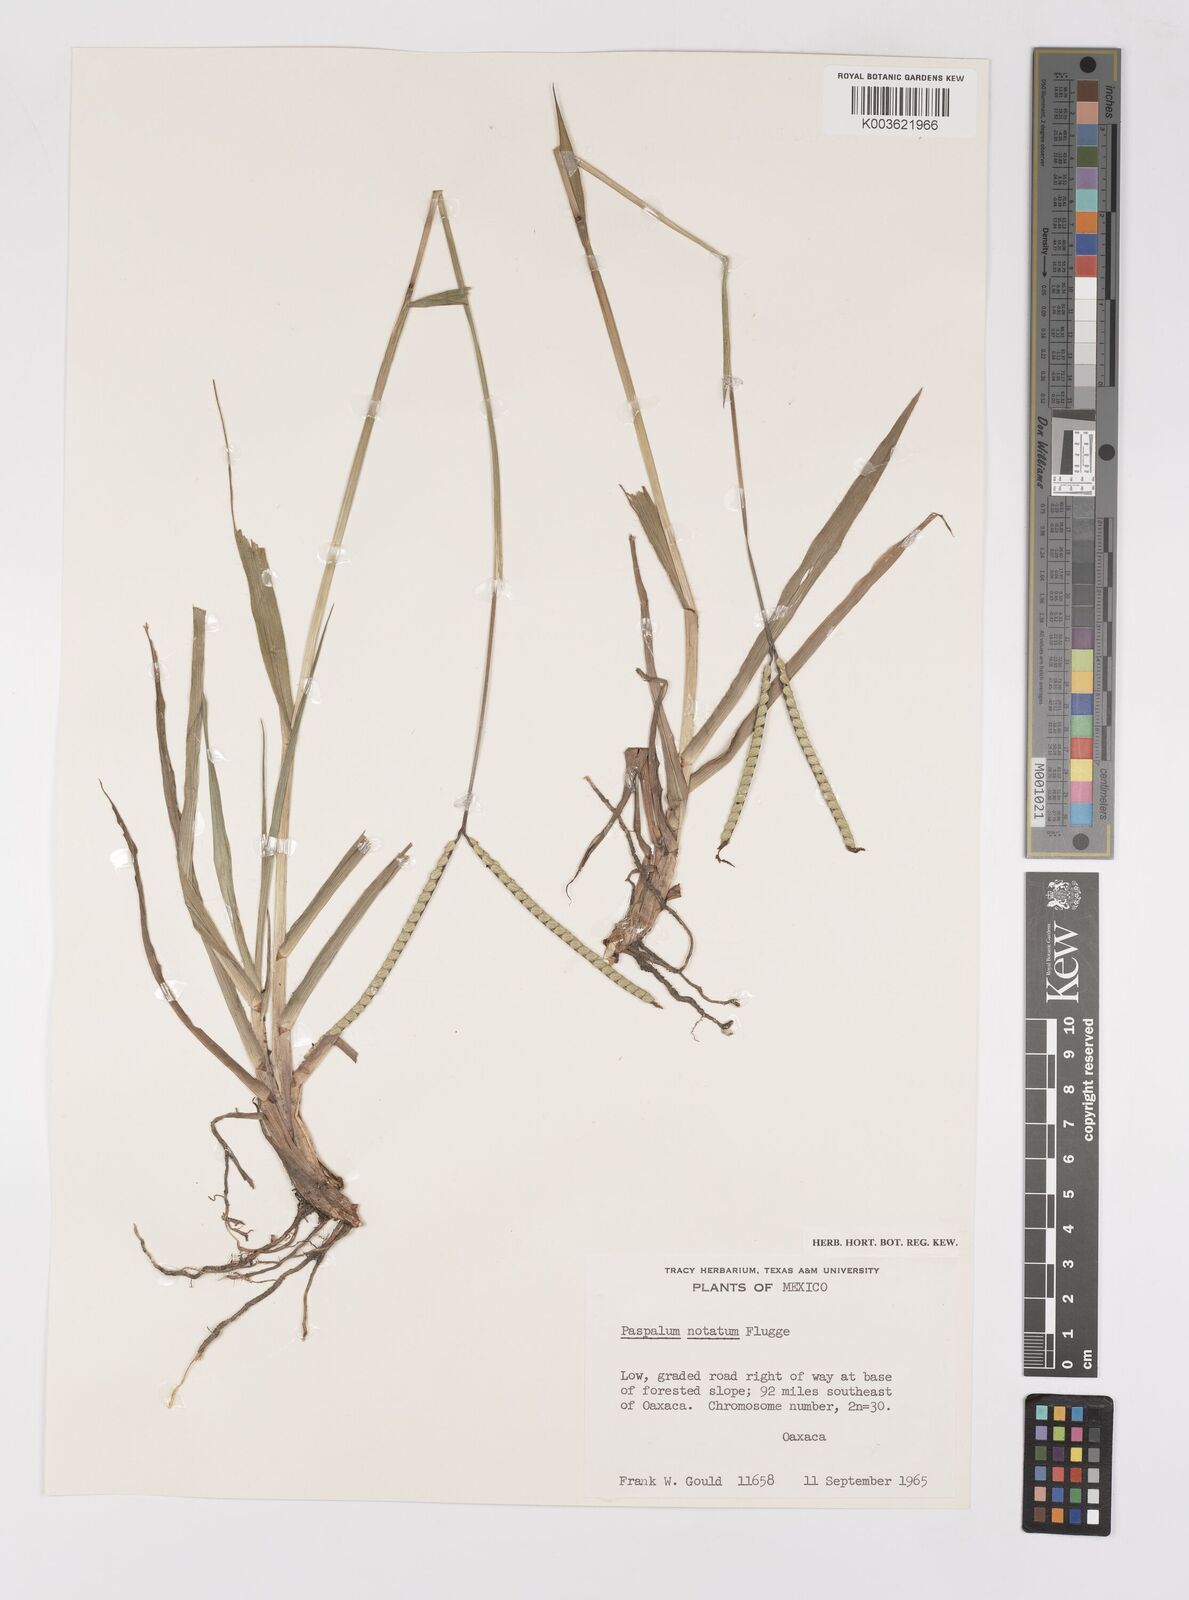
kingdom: Plantae
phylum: Tracheophyta
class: Liliopsida
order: Poales
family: Poaceae
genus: Paspalum
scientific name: Paspalum notatum
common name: Bahiagrass
